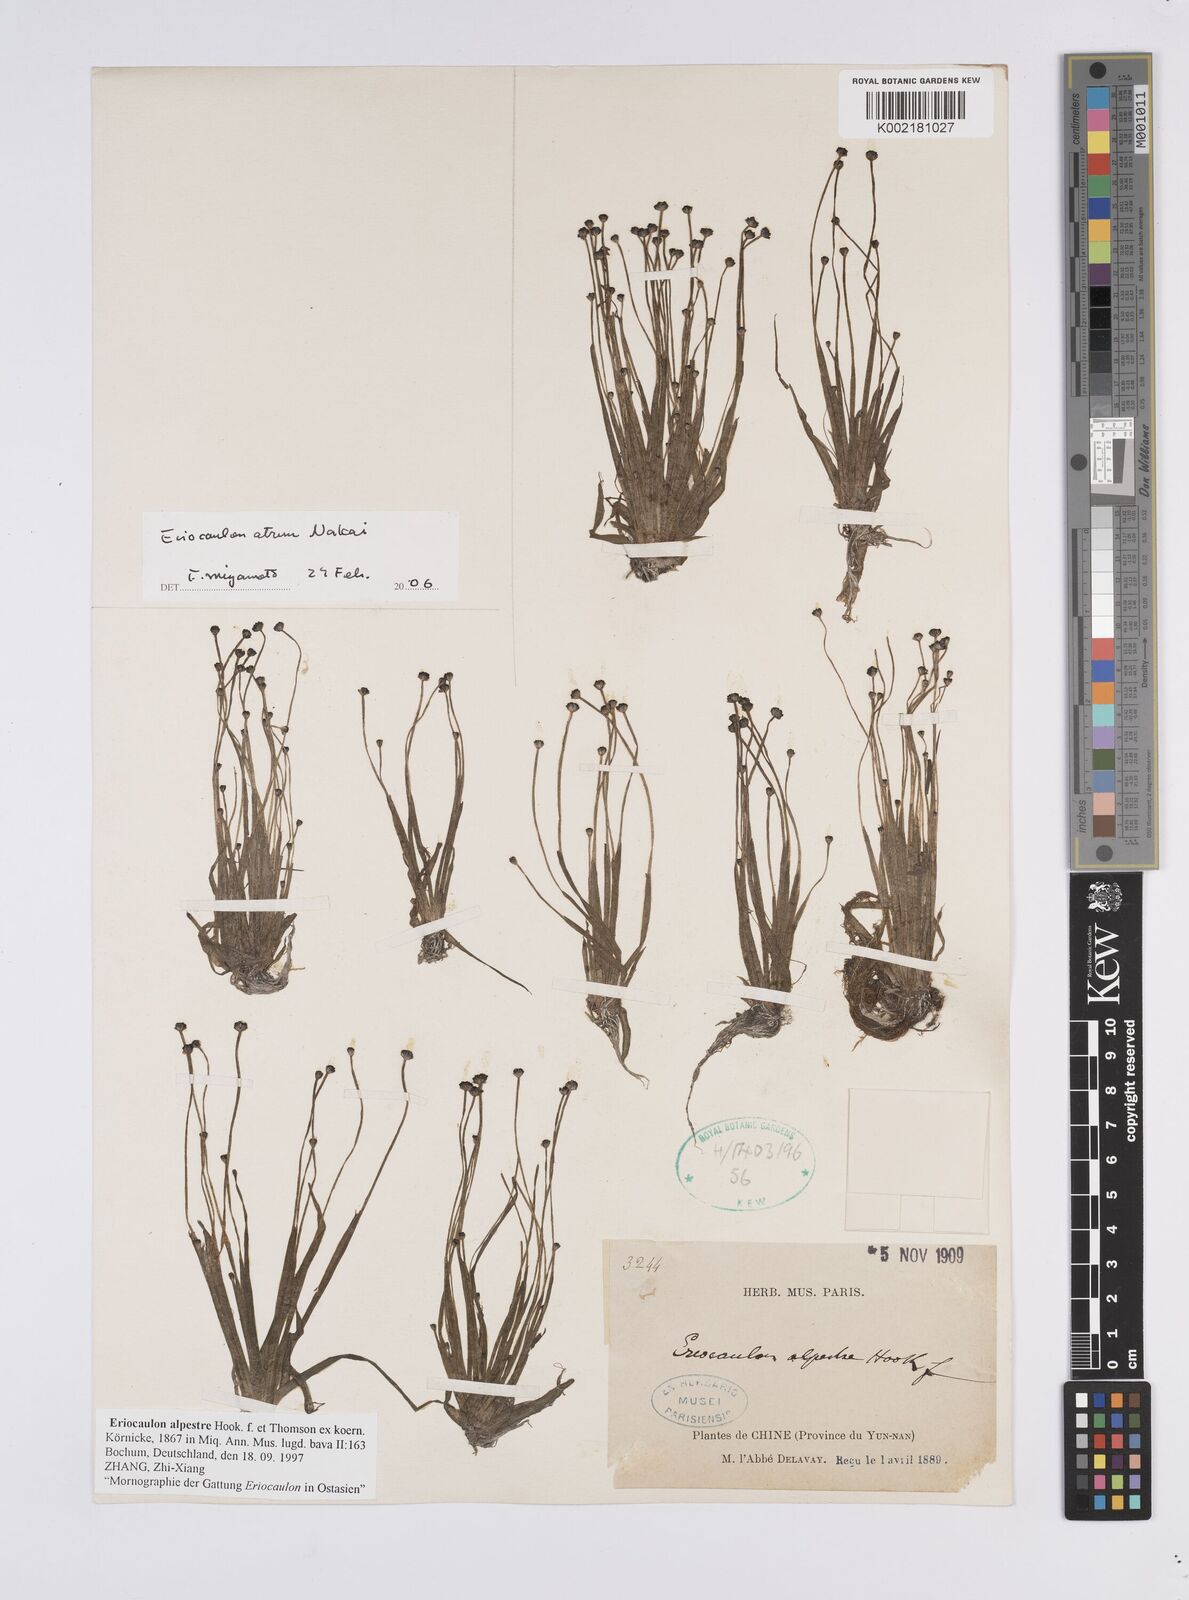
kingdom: Plantae
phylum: Tracheophyta
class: Liliopsida
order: Poales
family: Eriocaulaceae
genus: Eriocaulon
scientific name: Eriocaulon alpestre
